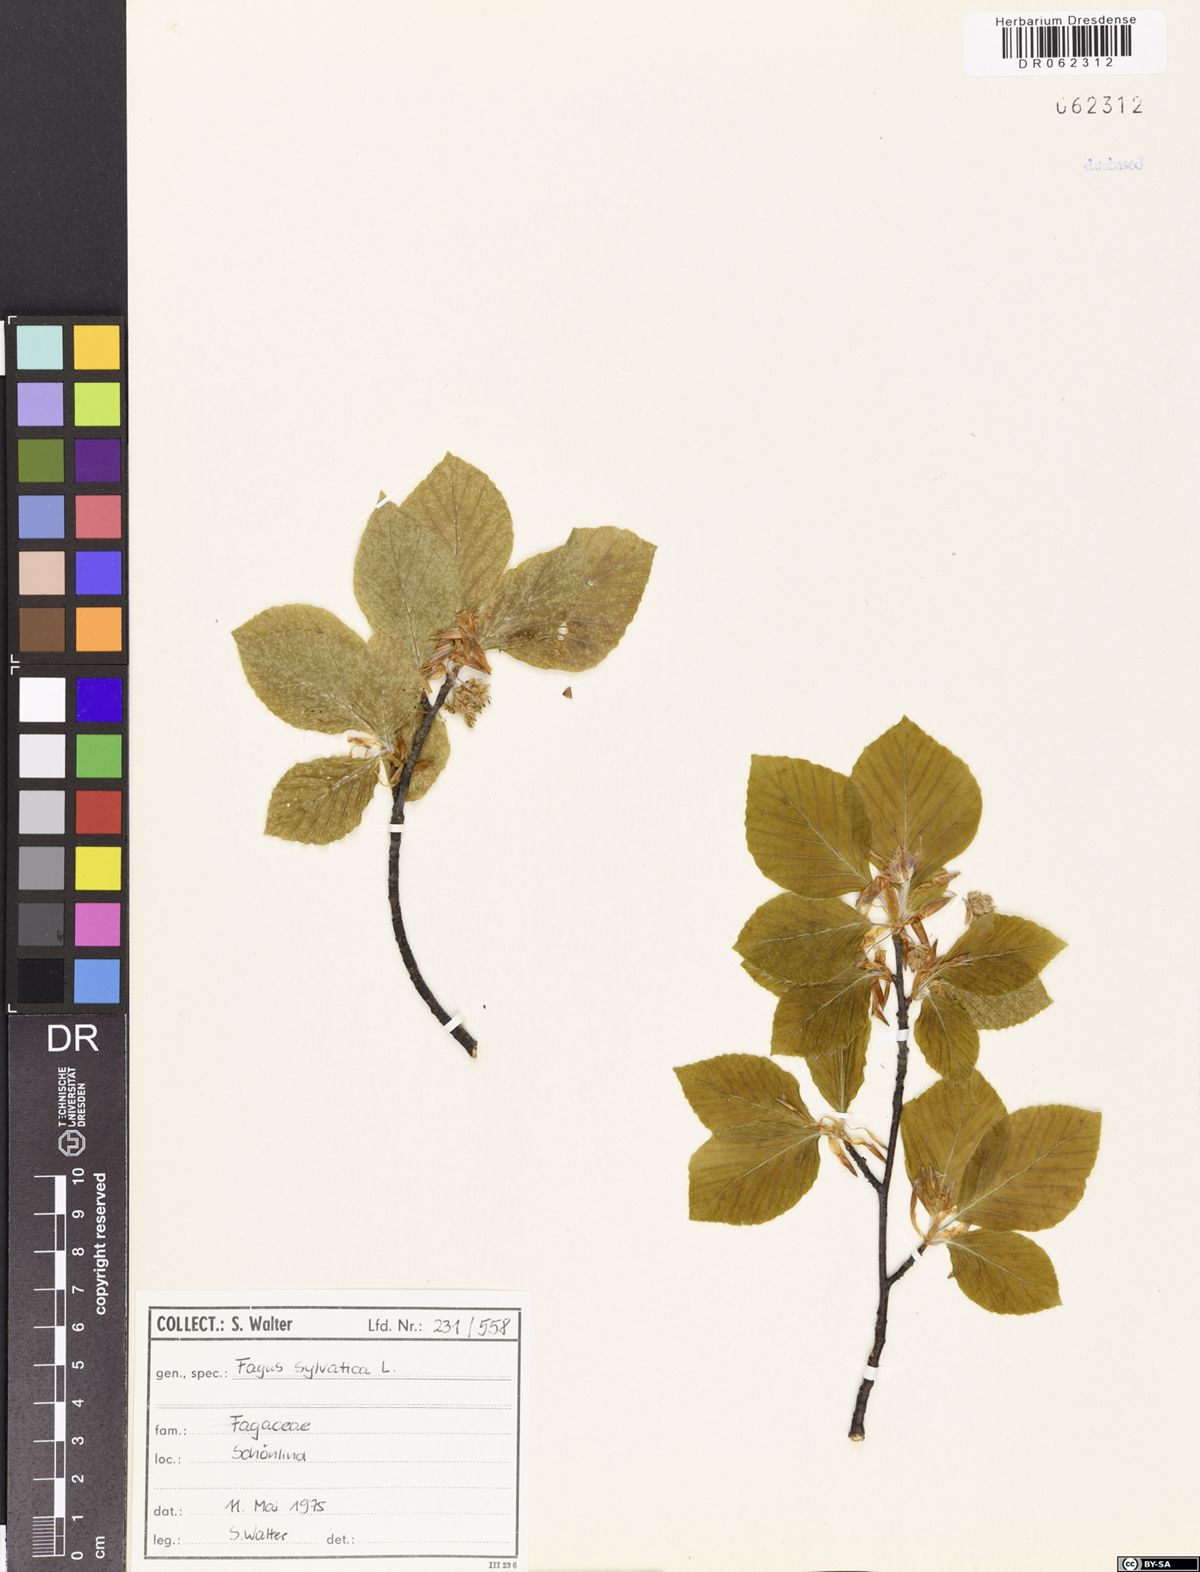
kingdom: Plantae
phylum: Tracheophyta
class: Magnoliopsida
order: Fagales
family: Fagaceae
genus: Fagus
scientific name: Fagus sylvatica
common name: Beech
